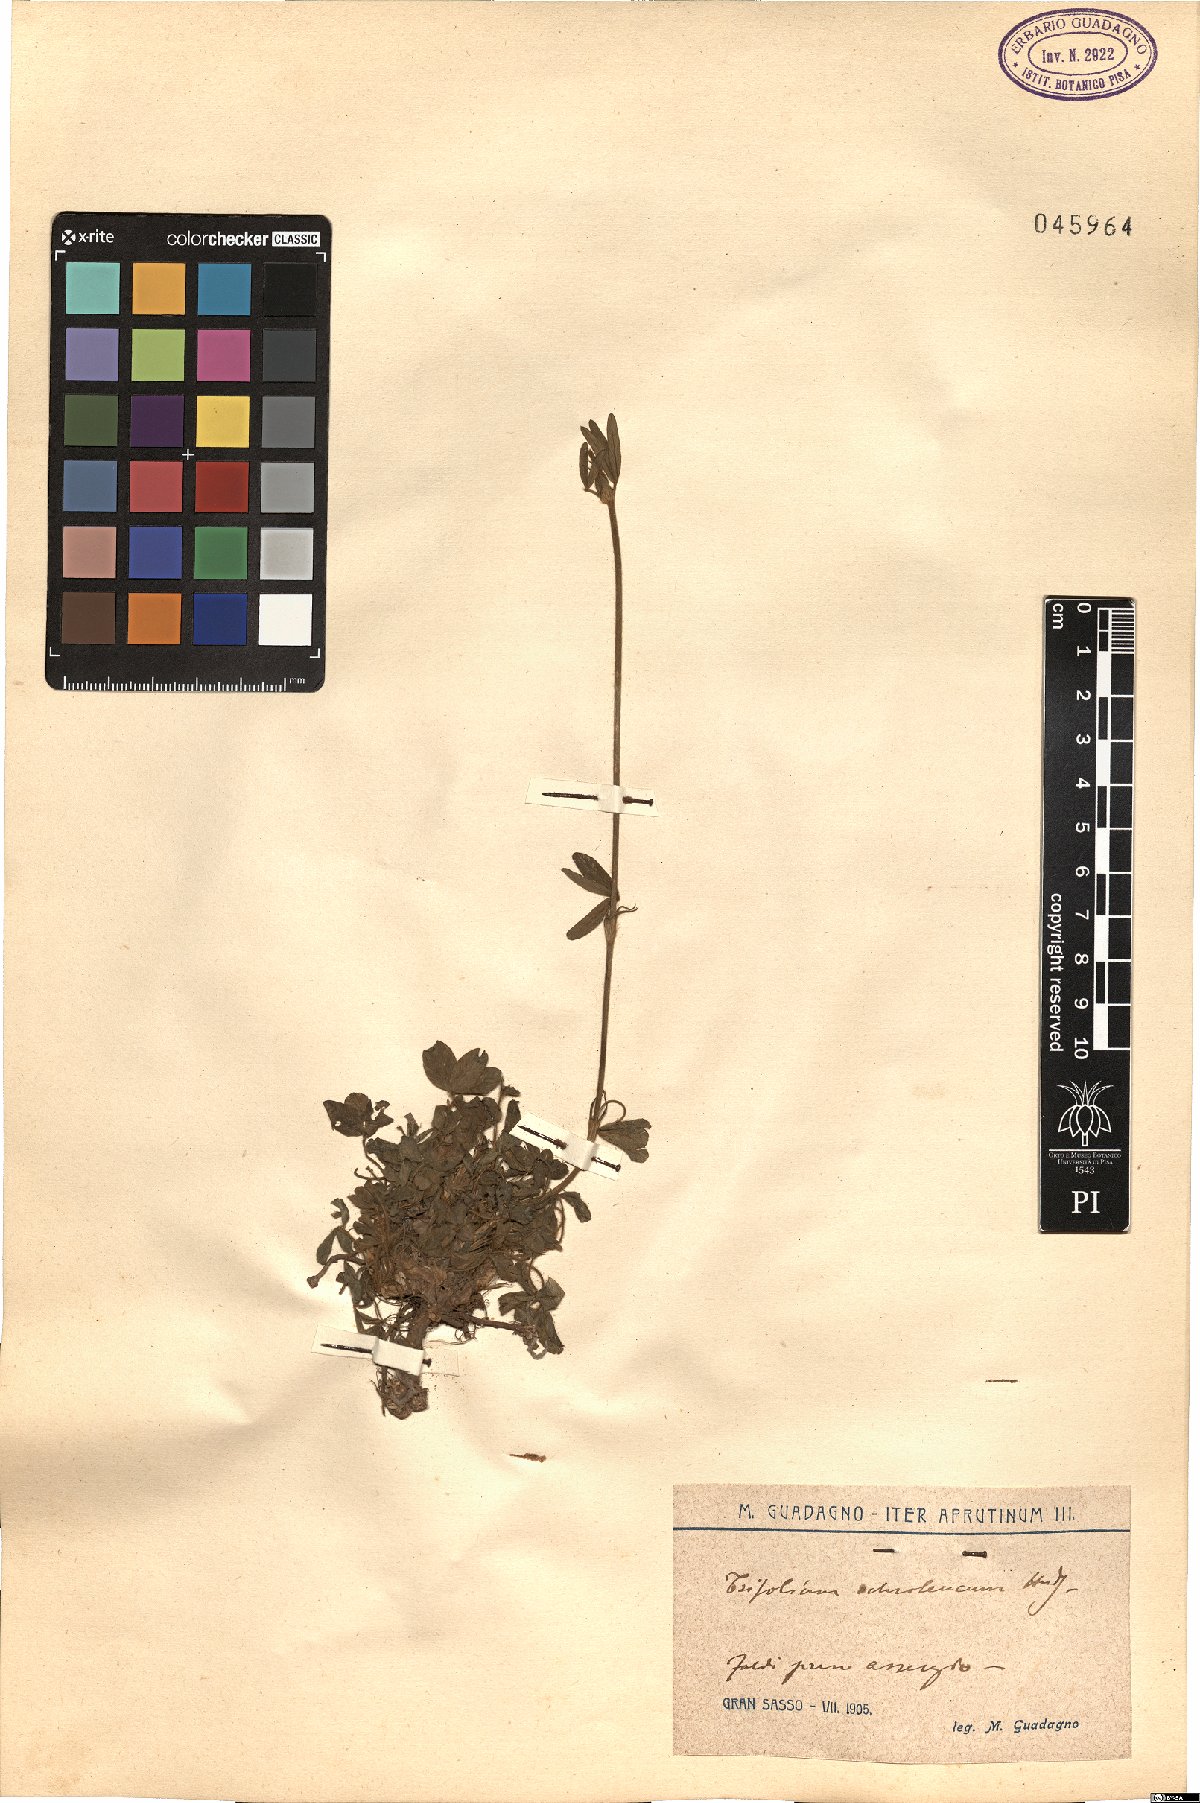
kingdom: Plantae
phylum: Tracheophyta
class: Magnoliopsida
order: Fabales
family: Fabaceae
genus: Trifolium
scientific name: Trifolium ochroleucon
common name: Sulphur clover
